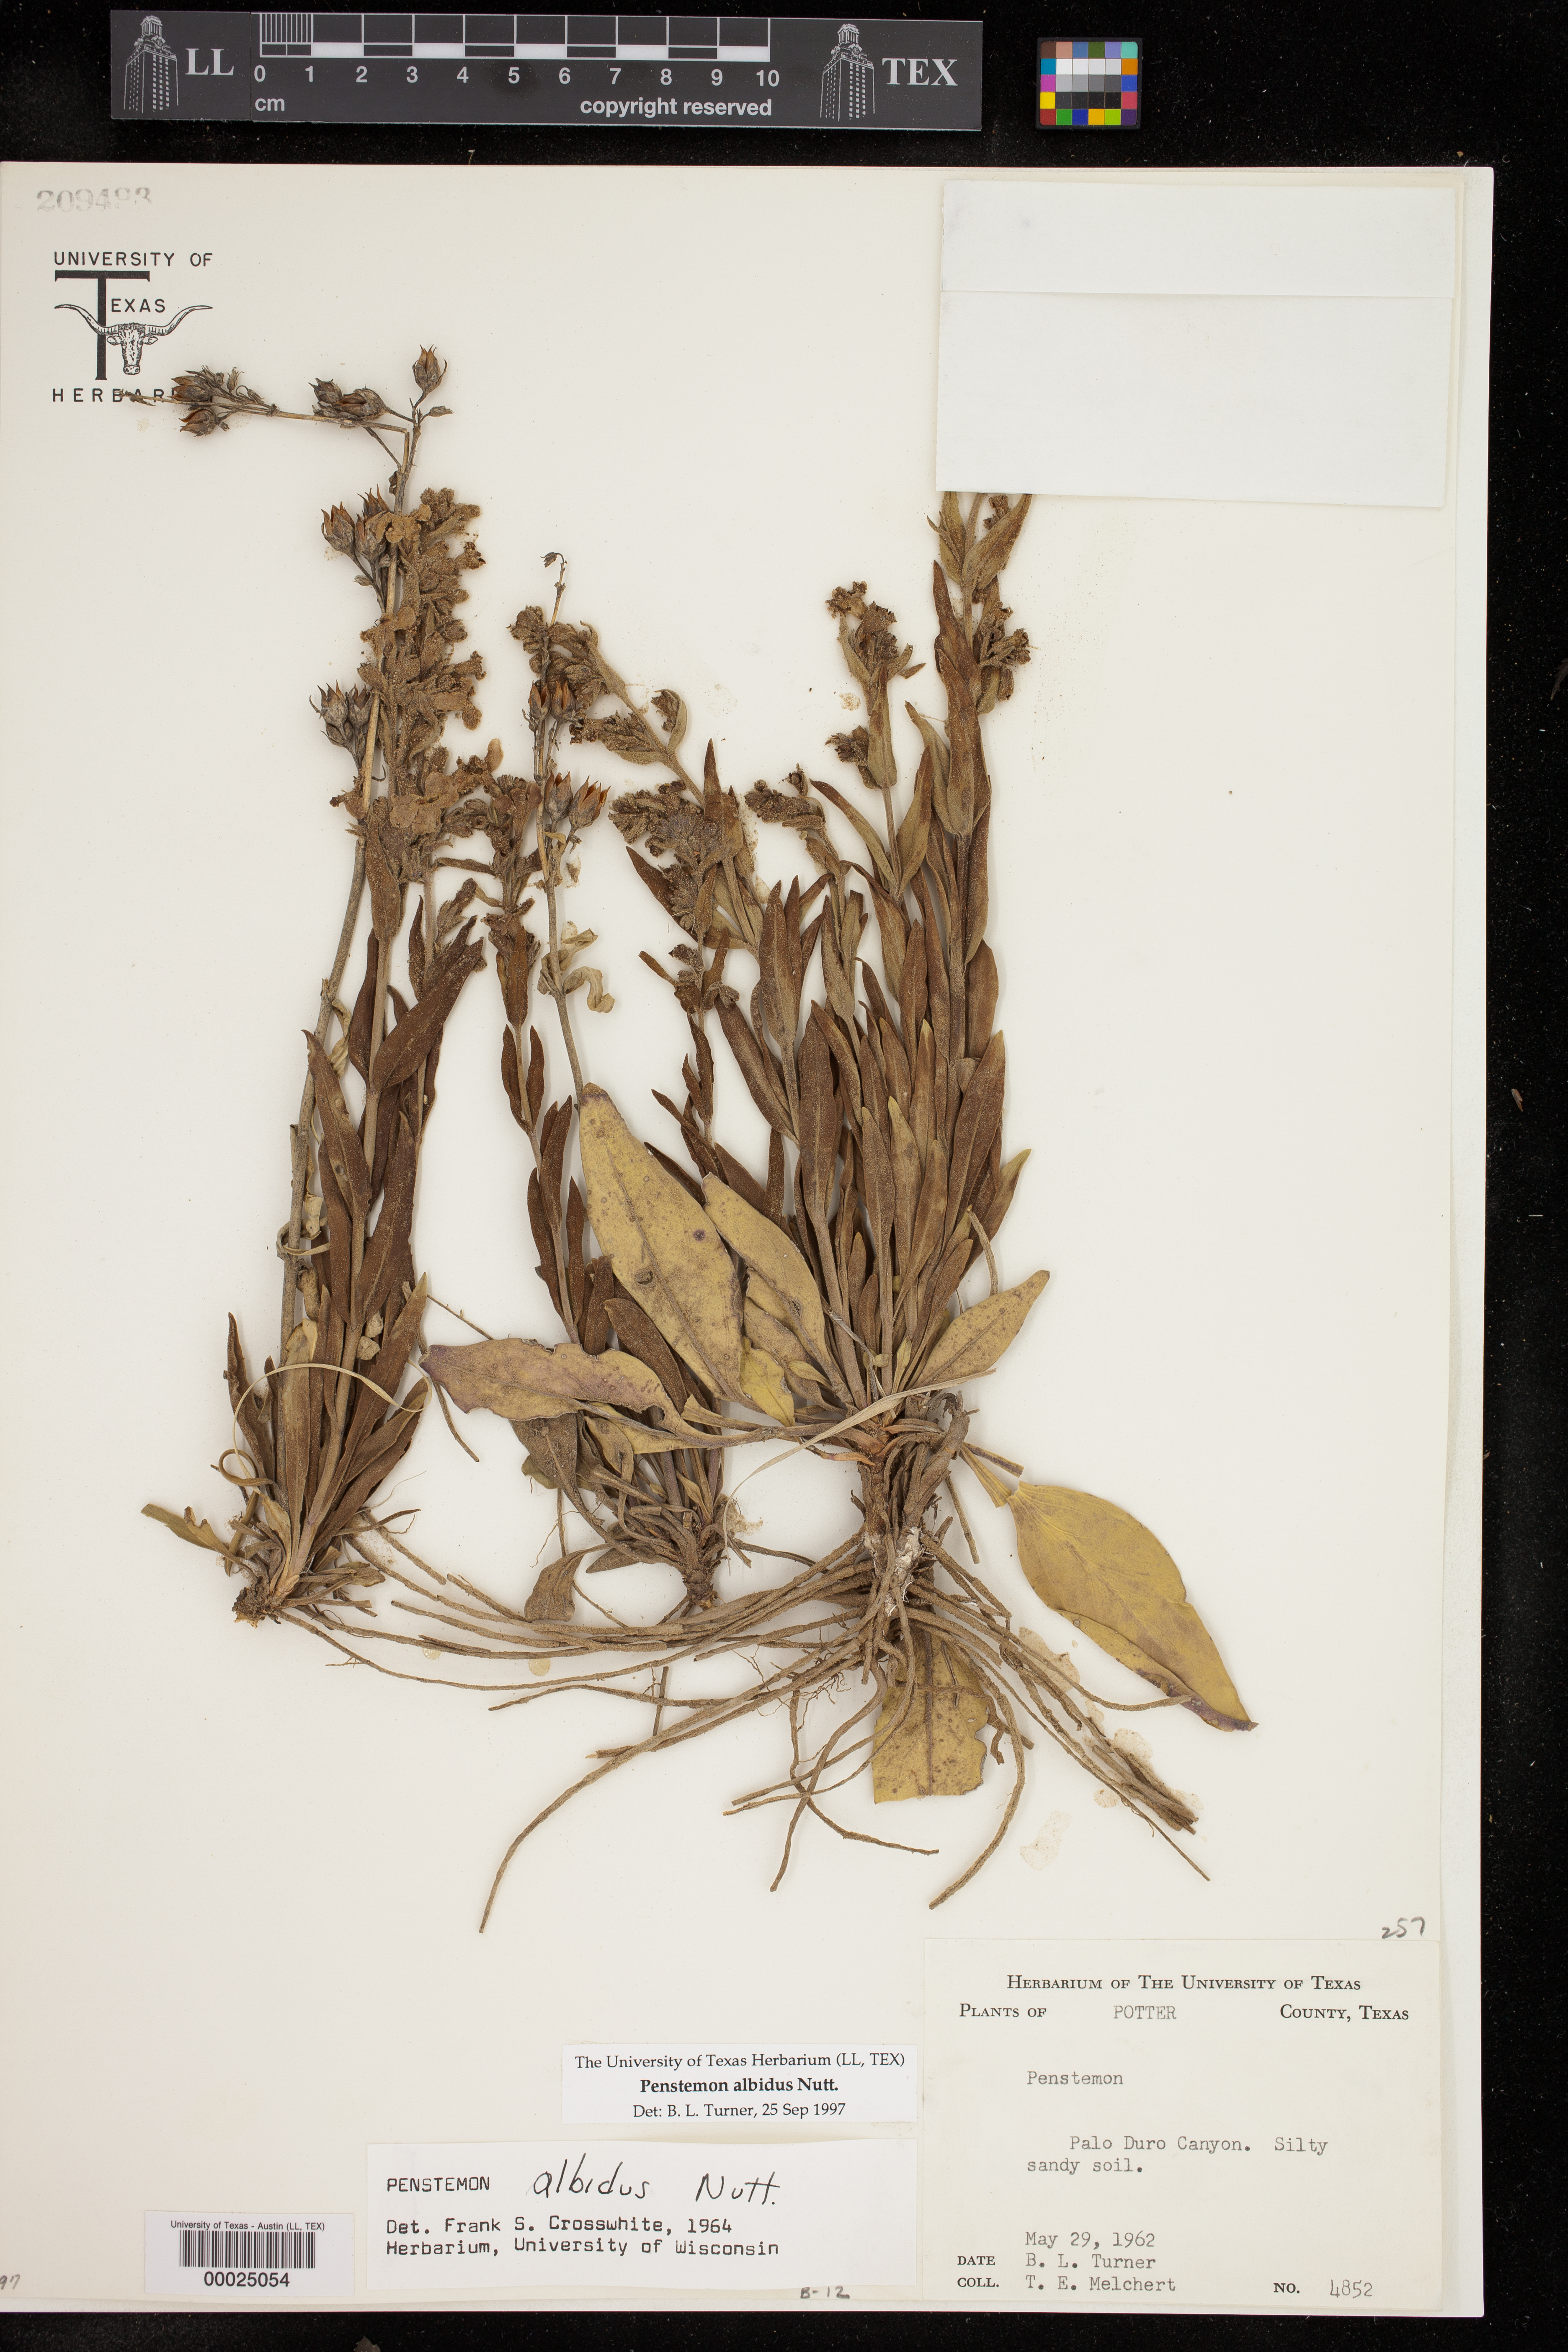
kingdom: Plantae
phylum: Tracheophyta
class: Magnoliopsida
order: Lamiales
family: Plantaginaceae
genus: Penstemon
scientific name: Penstemon albidus
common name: White beardtongue
